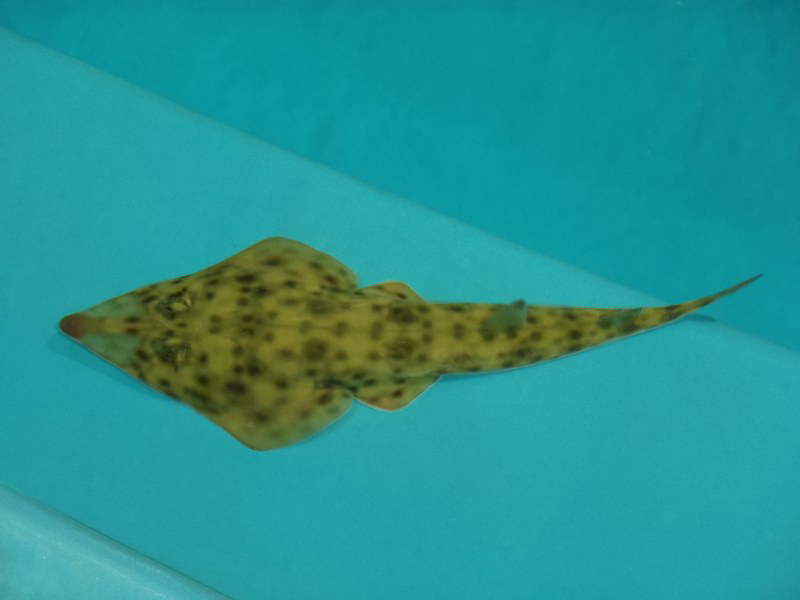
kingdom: Animalia
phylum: Chordata
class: Elasmobranchii
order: Rhinopristiformes
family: Rhinobatidae
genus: Rhinobatos
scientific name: Rhinobatos austini
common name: Austin’s guitarfish
